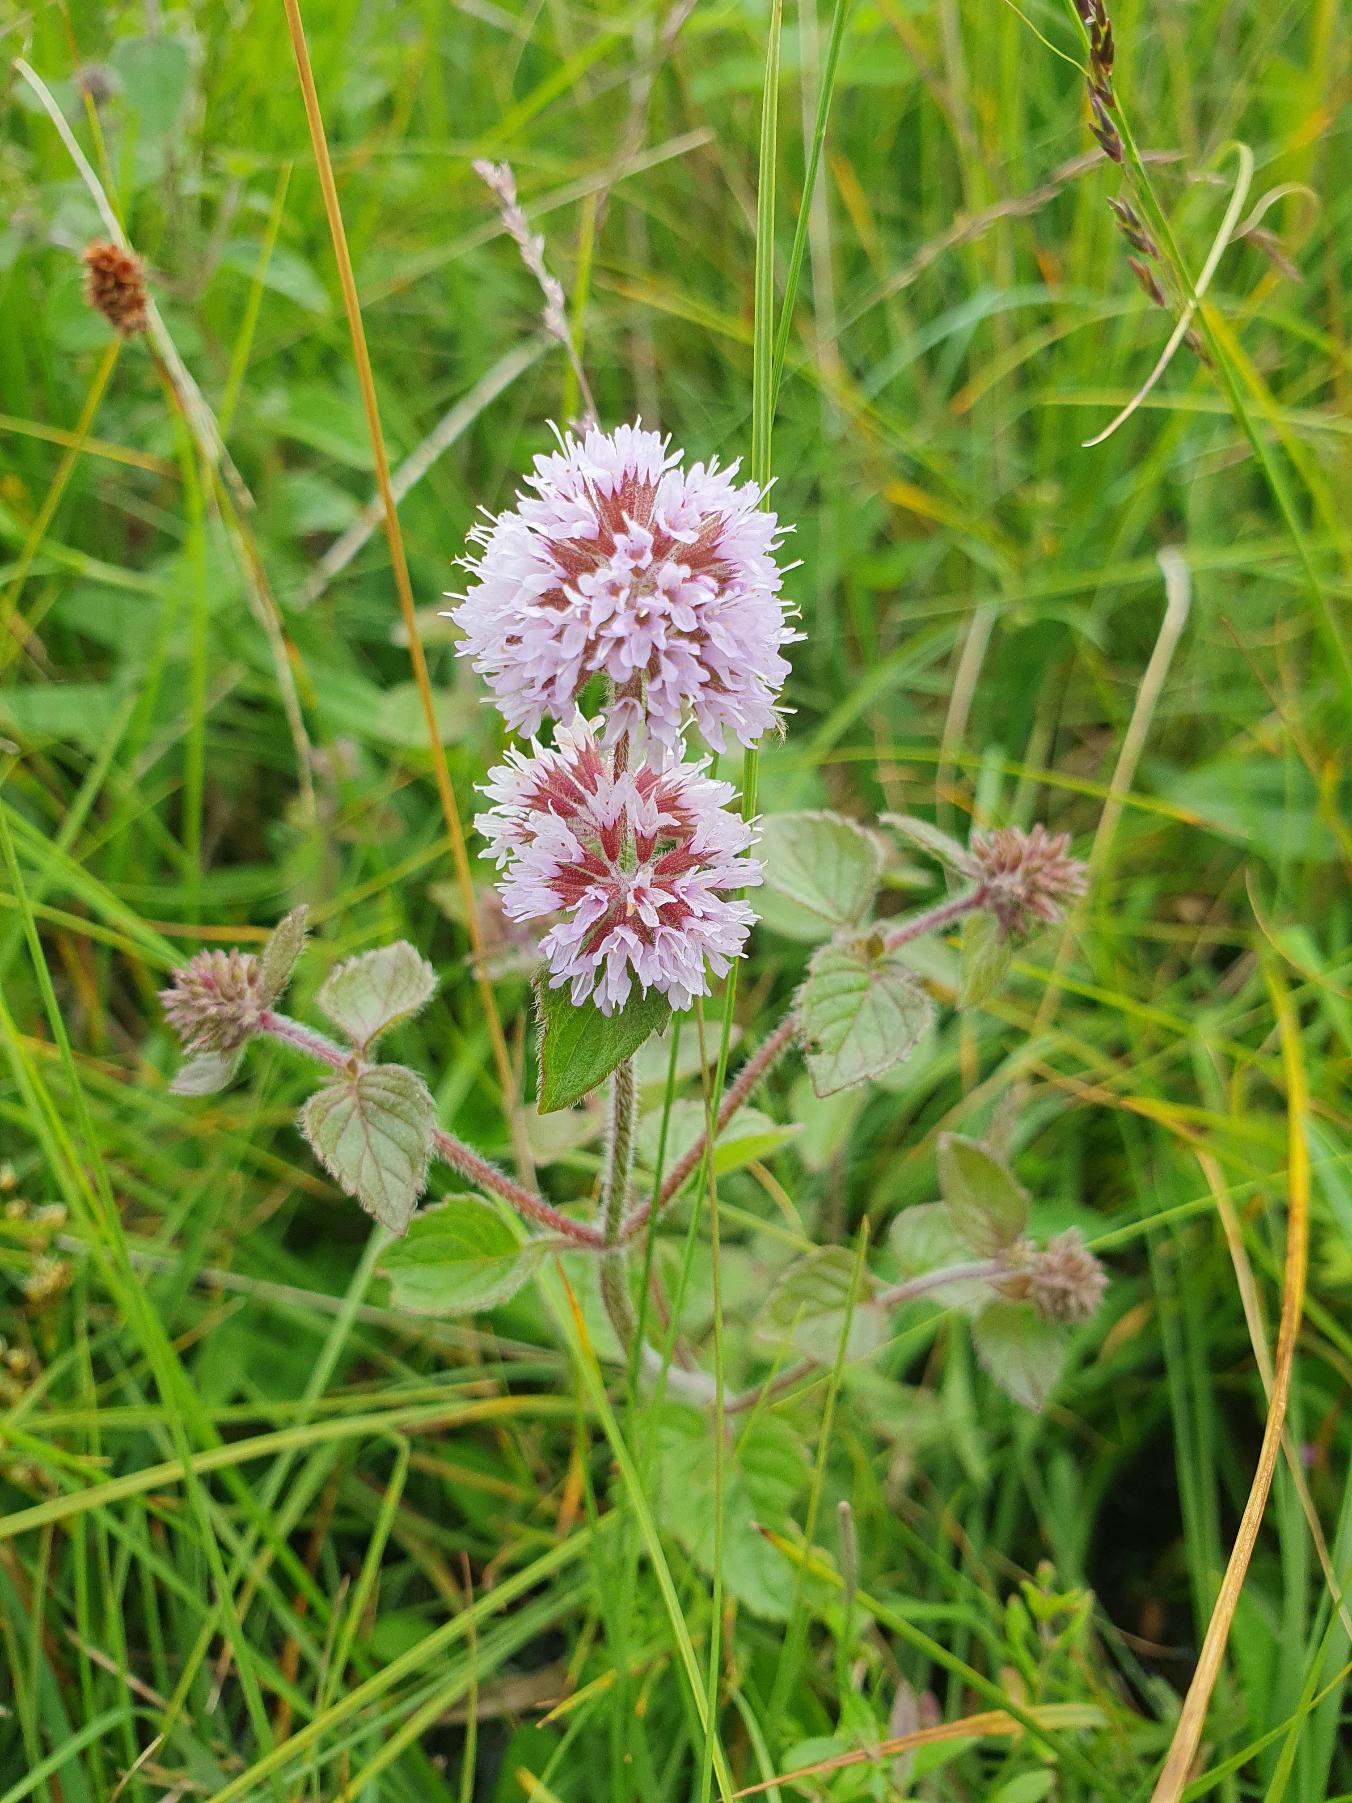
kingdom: Plantae
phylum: Tracheophyta
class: Magnoliopsida
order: Lamiales
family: Lamiaceae
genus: Mentha
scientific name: Mentha aquatica
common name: Vand-mynte
